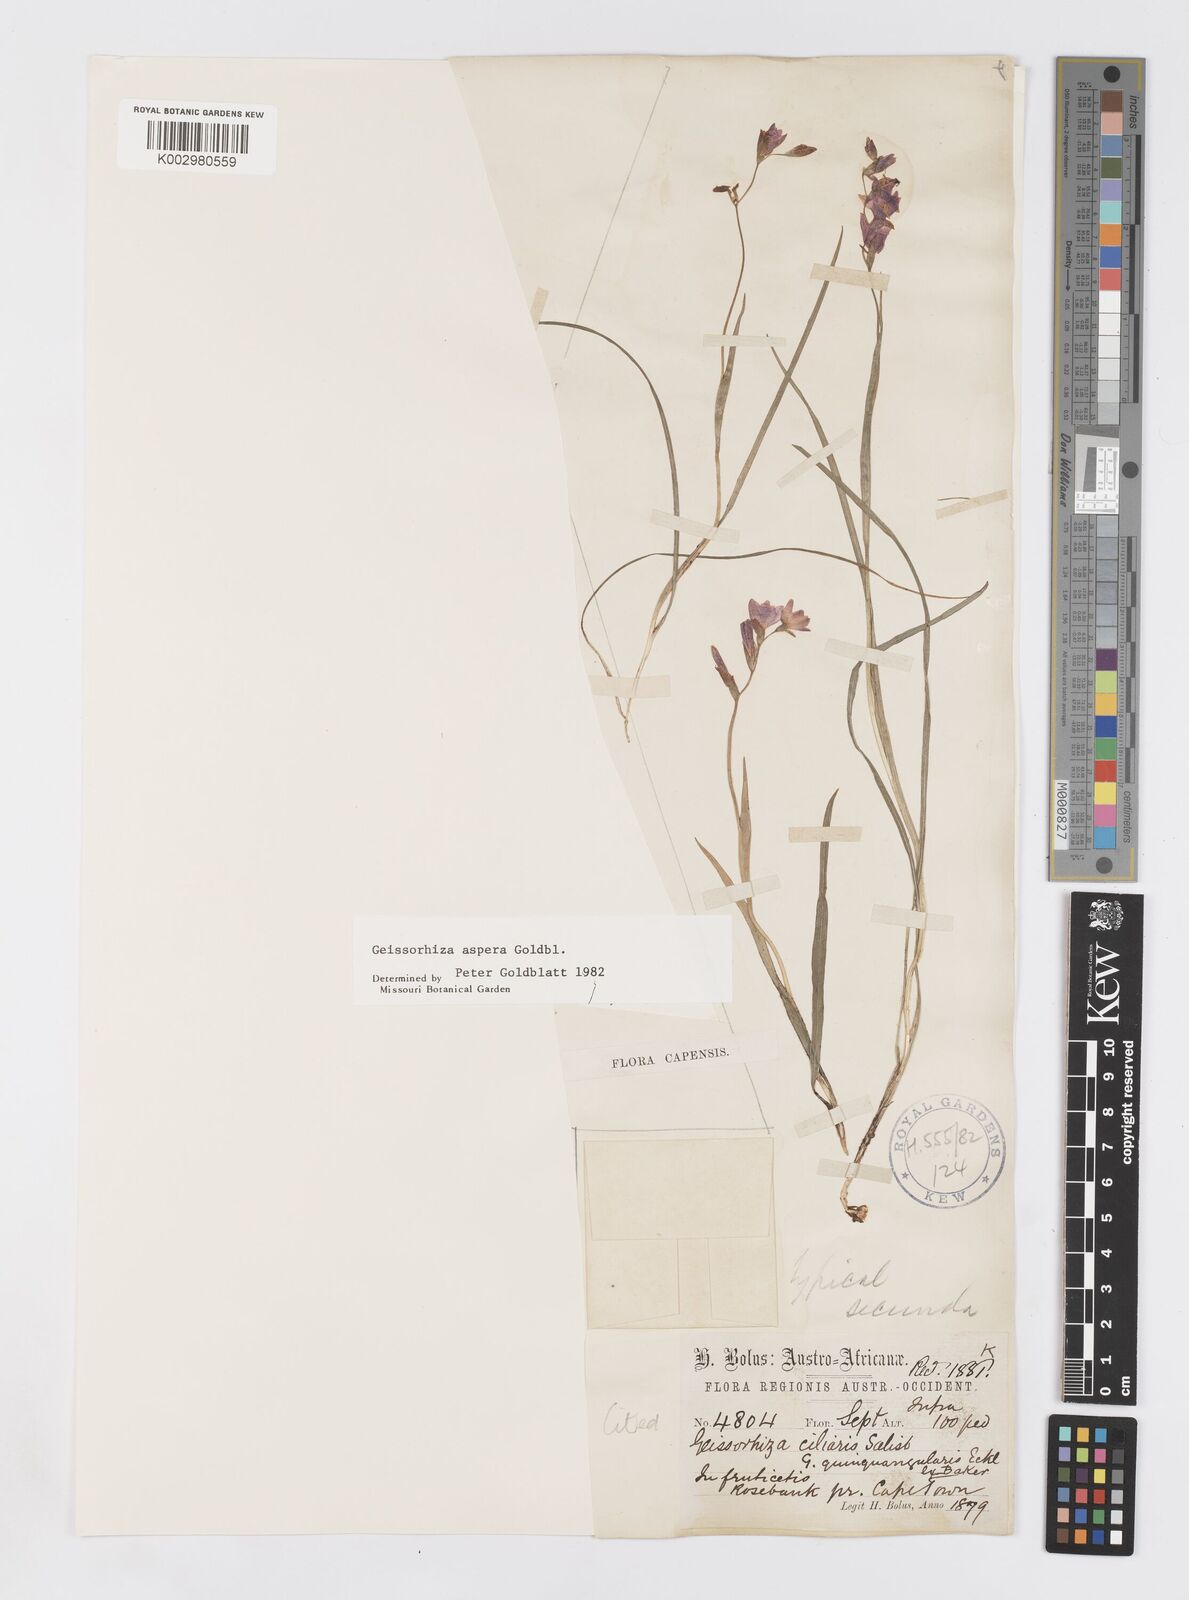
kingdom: Plantae
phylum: Tracheophyta
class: Liliopsida
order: Asparagales
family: Iridaceae
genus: Geissorhiza
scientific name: Geissorhiza aspera
